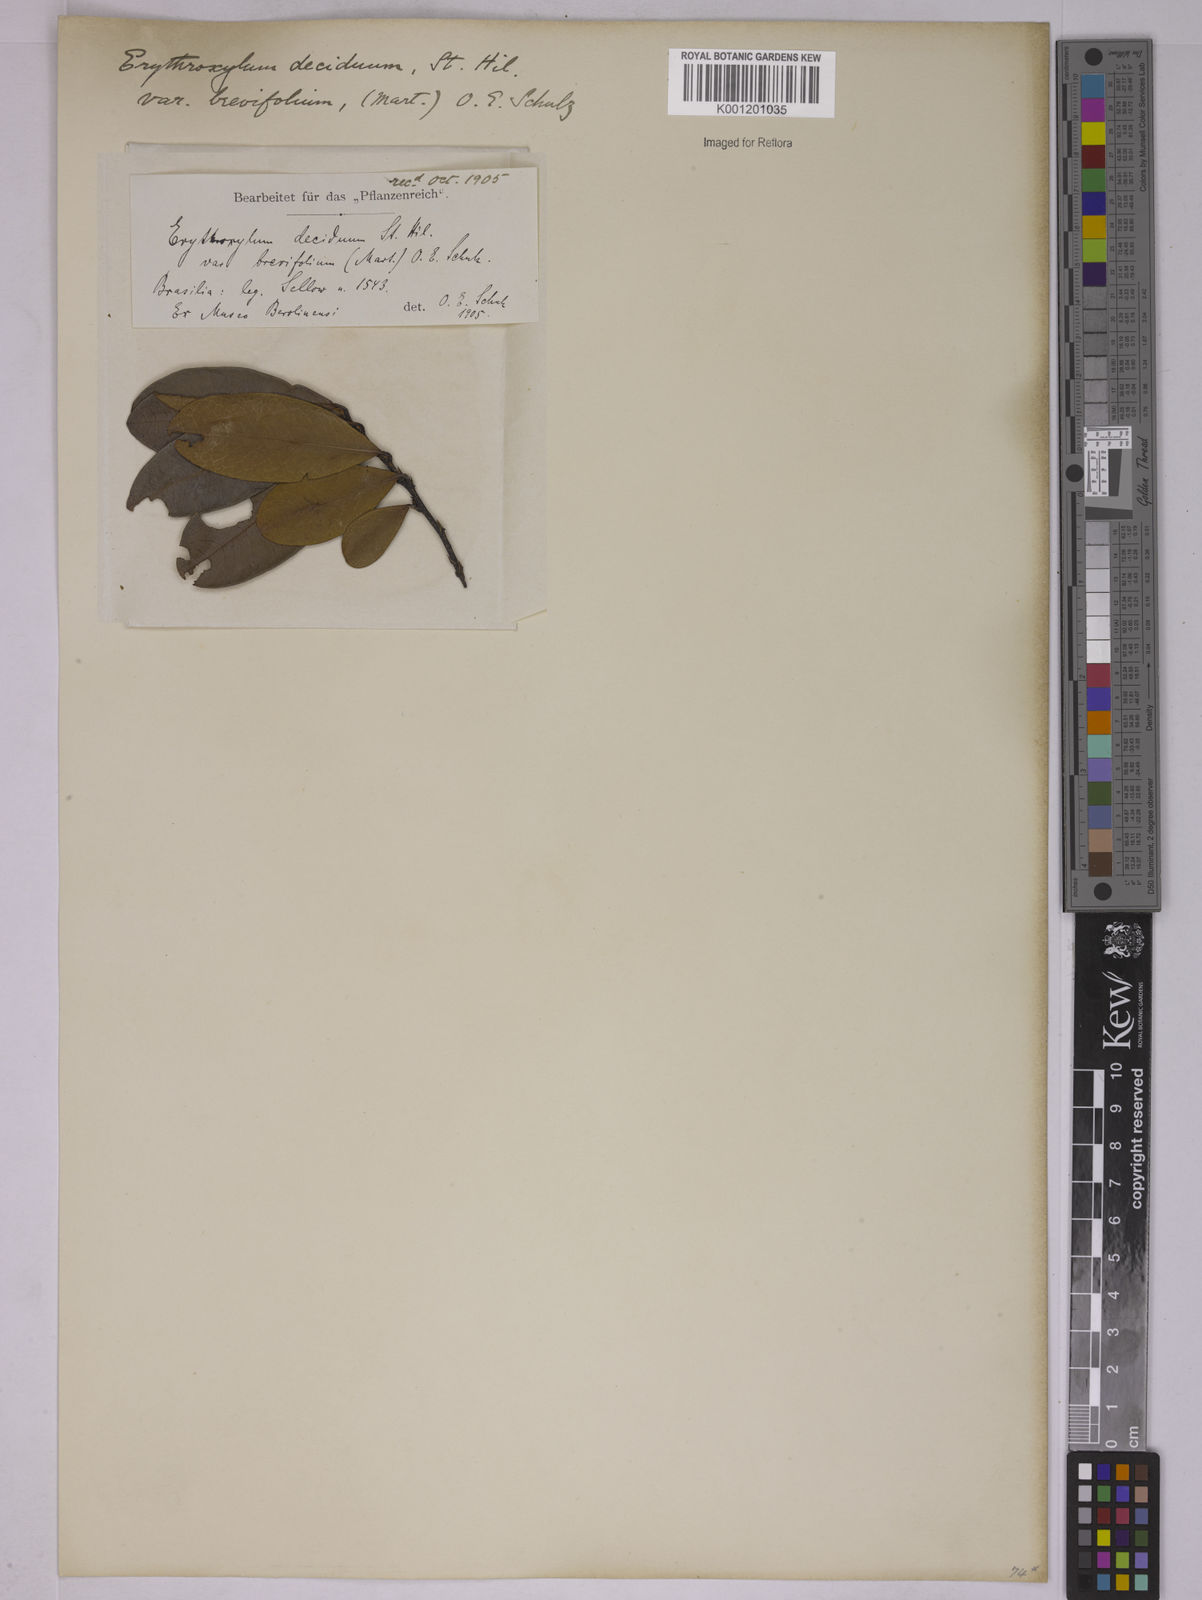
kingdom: Plantae
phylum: Tracheophyta
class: Magnoliopsida
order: Malpighiales
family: Erythroxylaceae
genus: Erythroxylum
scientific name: Erythroxylum deciduum
